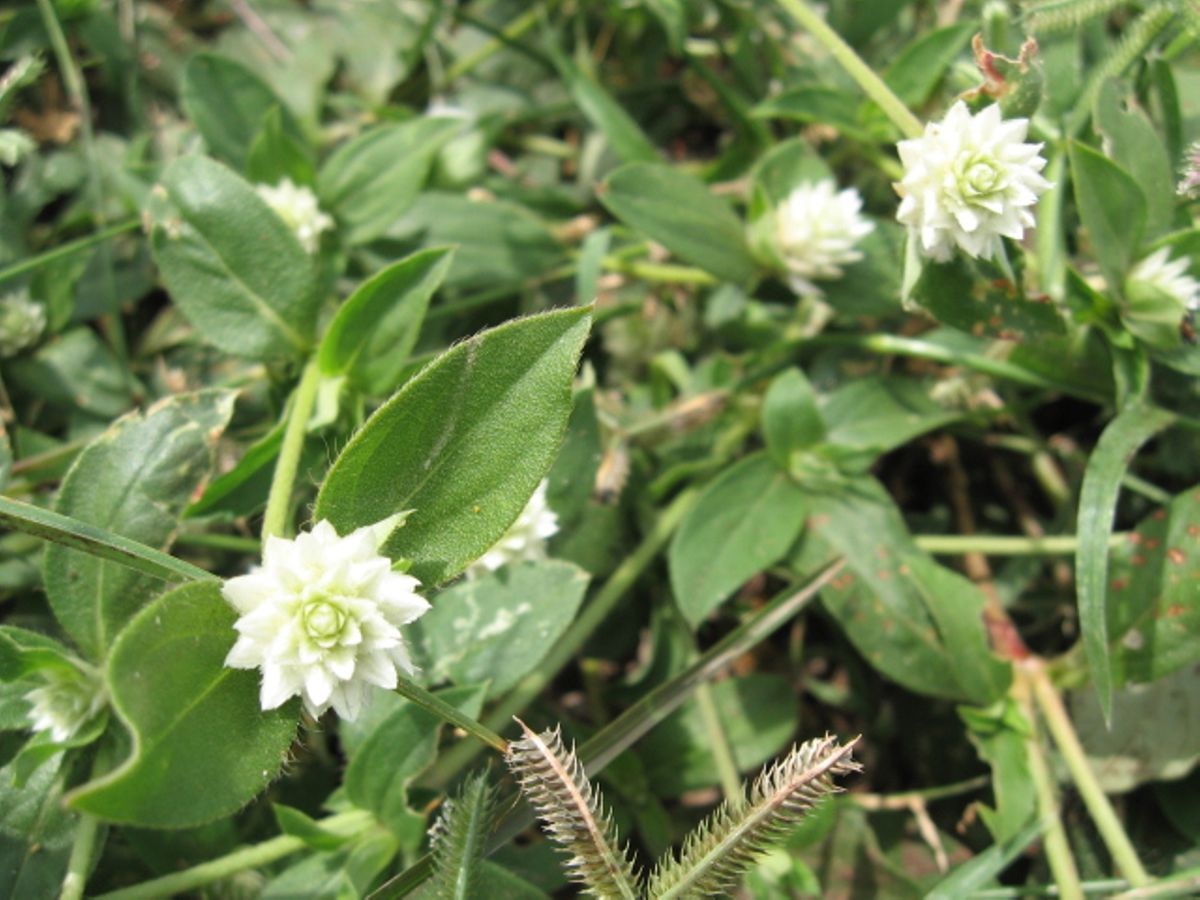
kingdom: Plantae
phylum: Tracheophyta
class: Magnoliopsida
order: Caryophyllales
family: Amaranthaceae
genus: Gomphrena
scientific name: Gomphrena serrata
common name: Arrasa con todo
